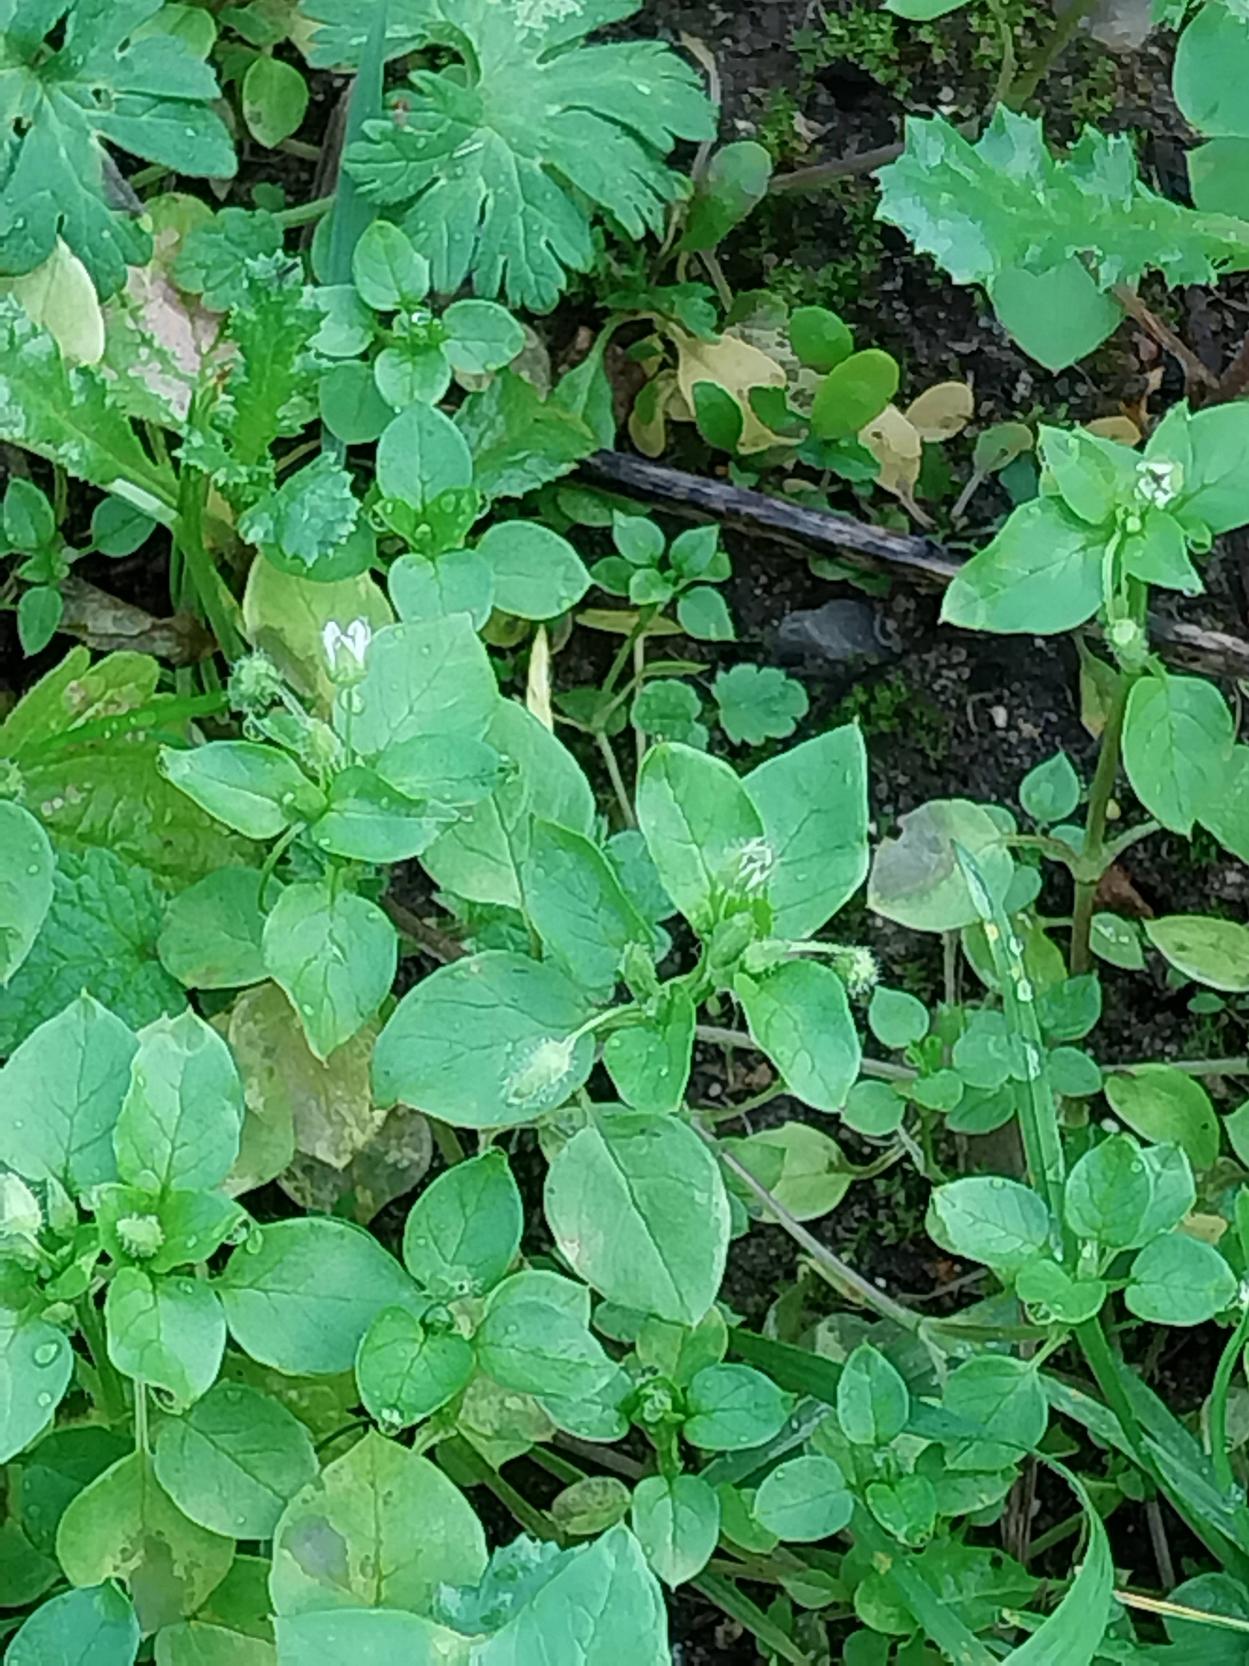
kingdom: Plantae
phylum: Tracheophyta
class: Magnoliopsida
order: Caryophyllales
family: Caryophyllaceae
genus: Stellaria
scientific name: Stellaria media
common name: Almindelig fuglegræs
